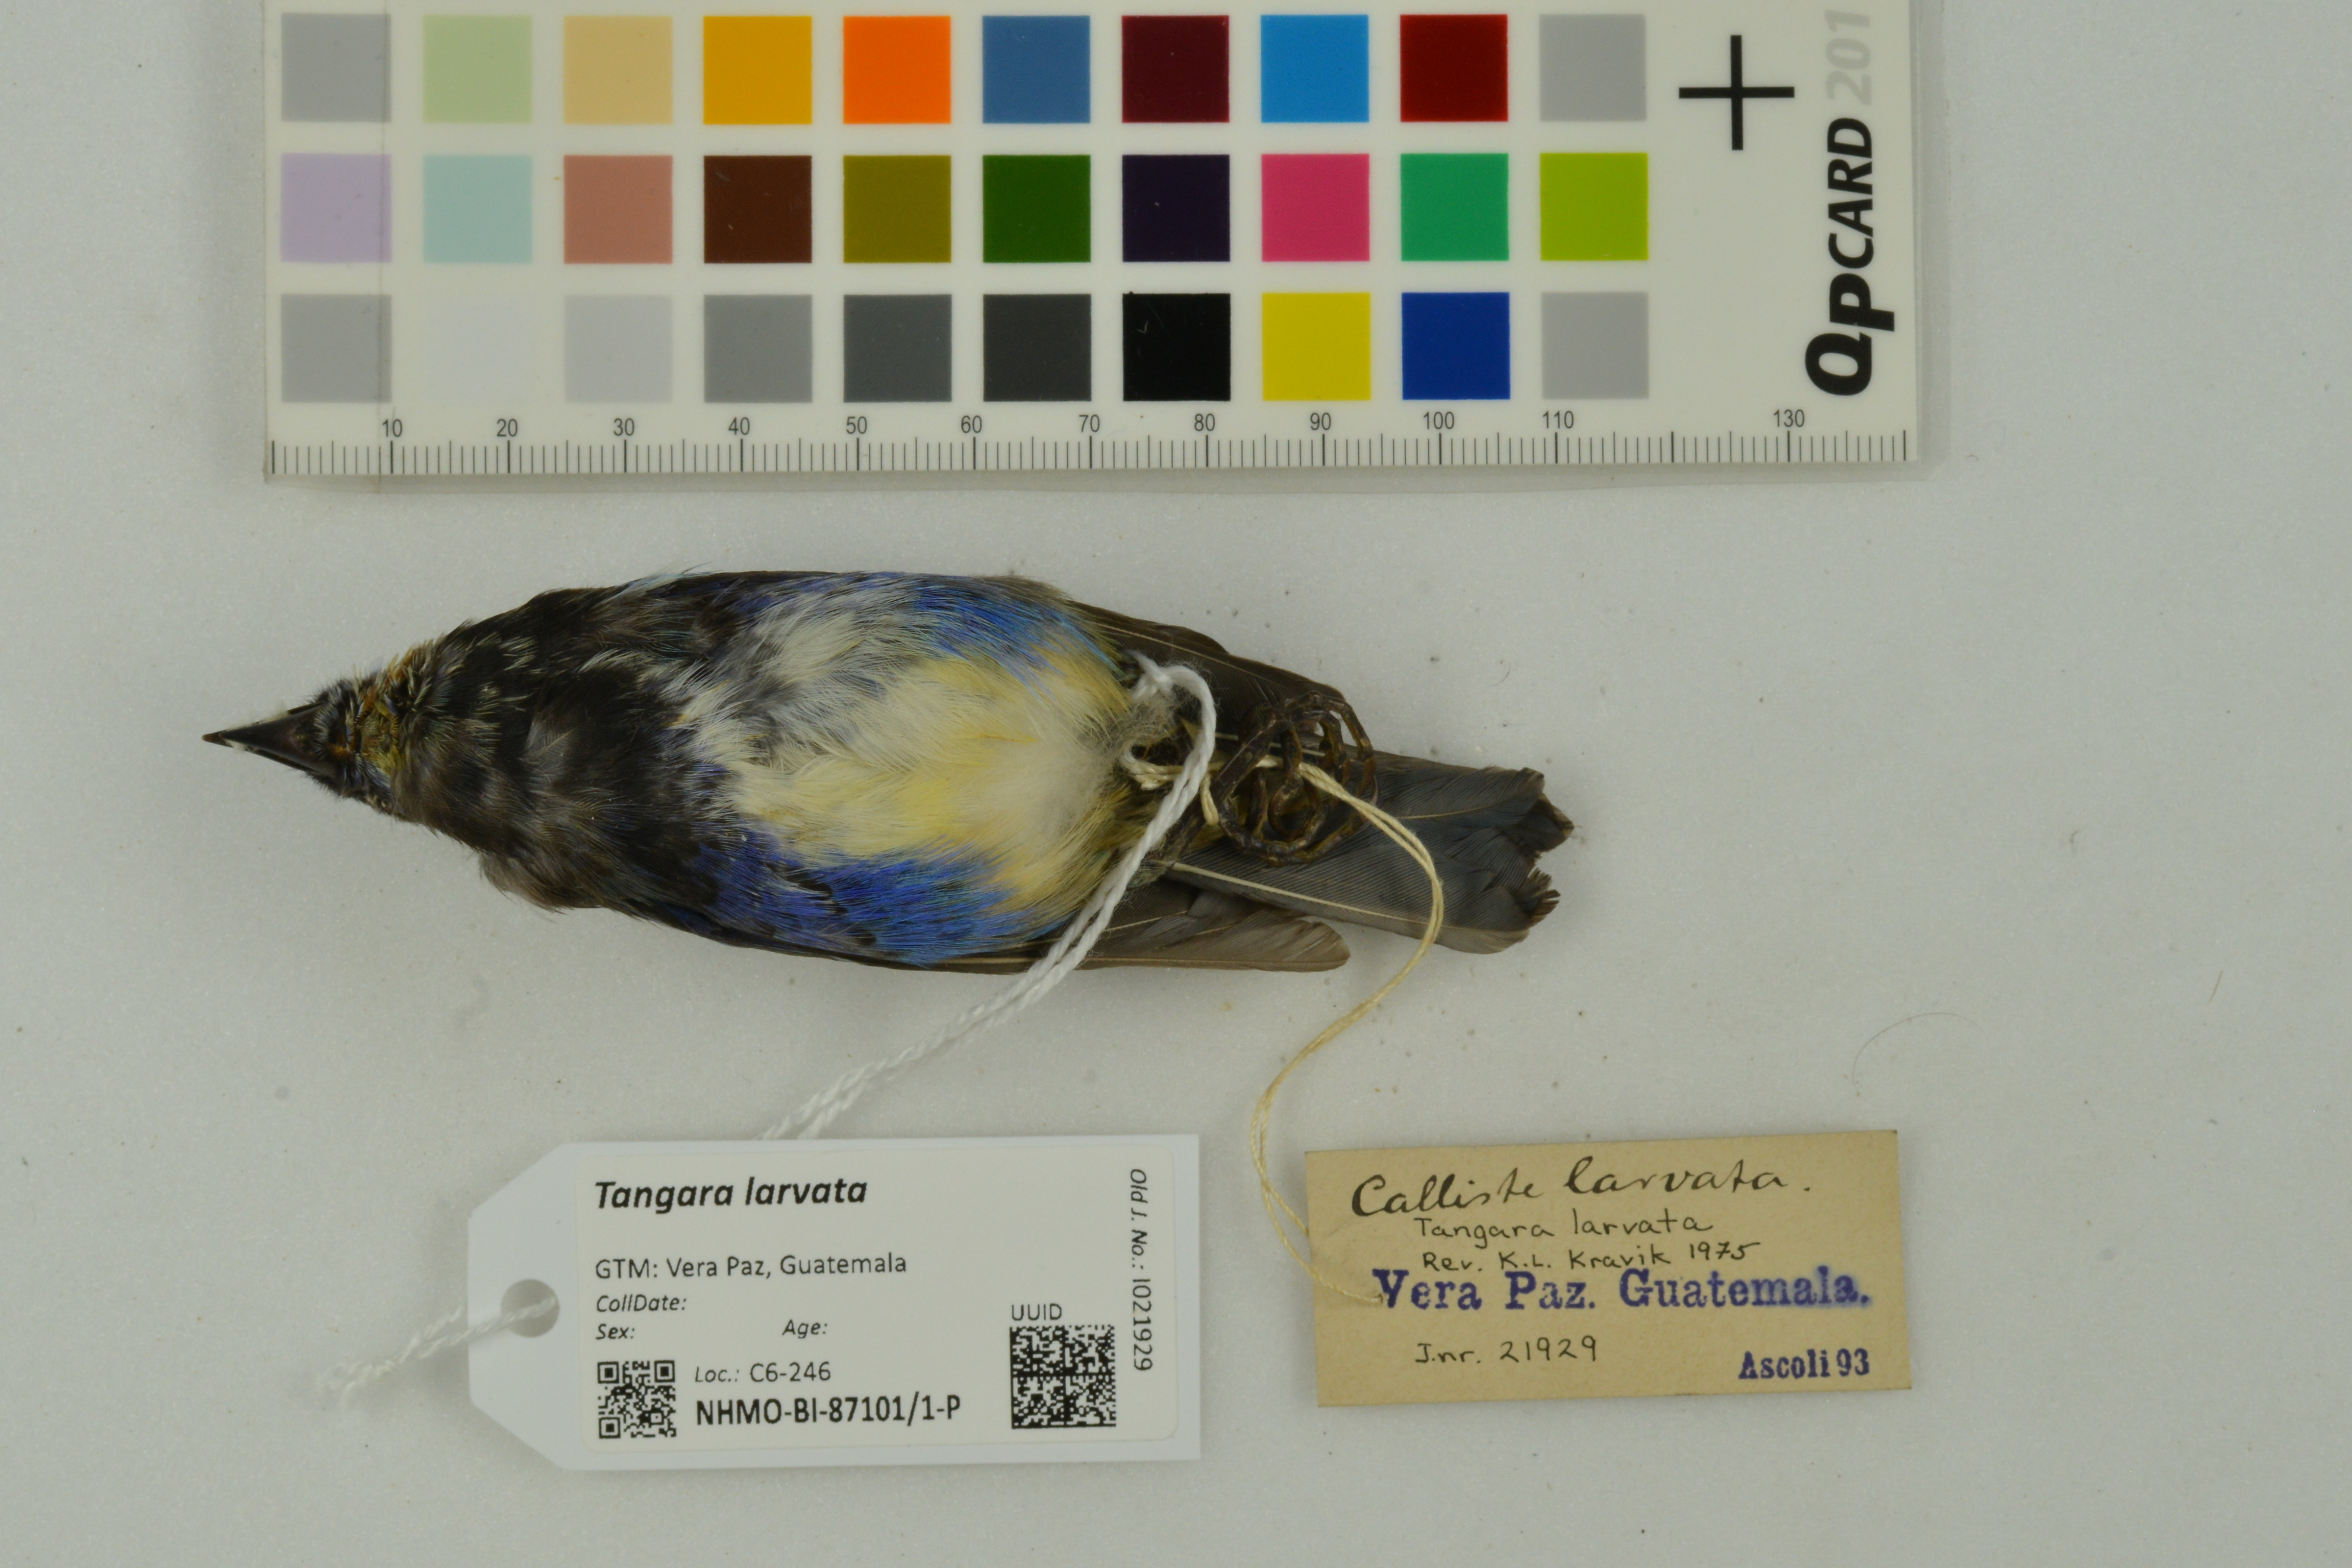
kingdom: Animalia
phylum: Chordata
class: Aves
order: Passeriformes
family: Thraupidae
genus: Stilpnia
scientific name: Stilpnia larvata
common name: Golden-hooded tanager
